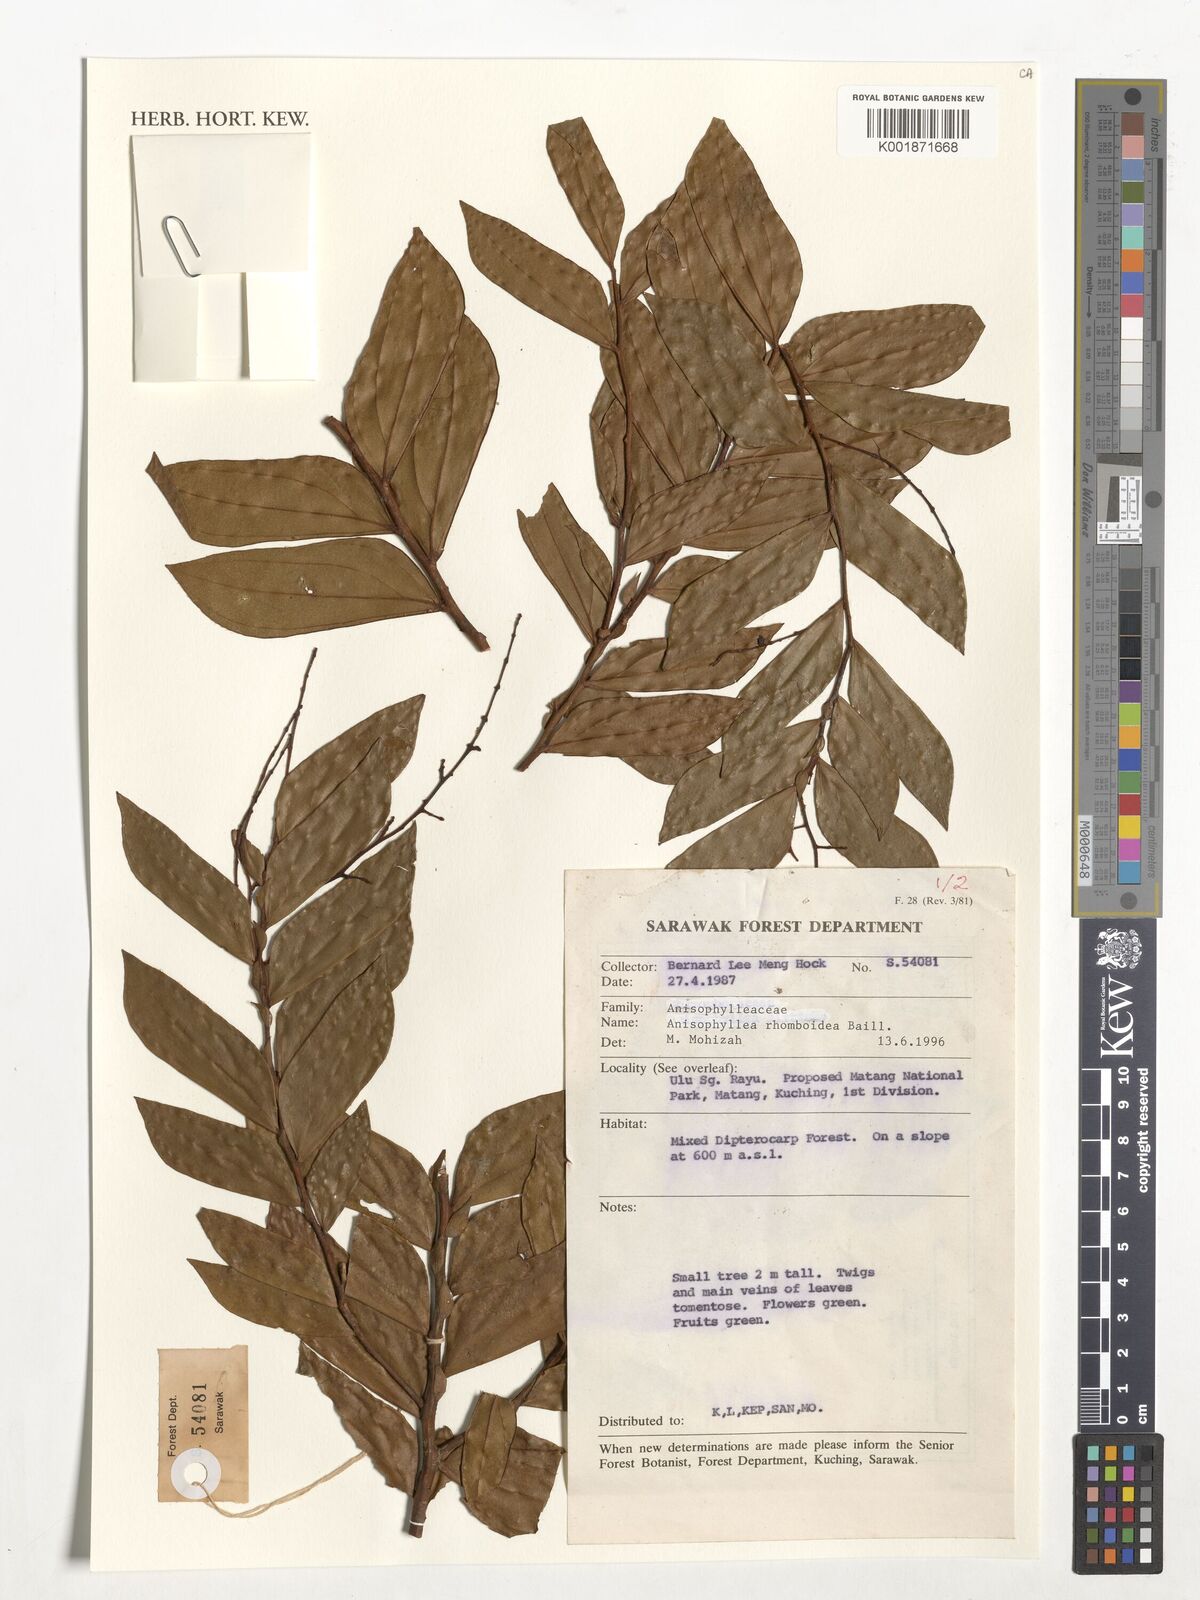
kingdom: Plantae
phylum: Tracheophyta
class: Magnoliopsida
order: Cucurbitales
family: Anisophylleaceae
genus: Anisophyllea
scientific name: Anisophyllea disticha
